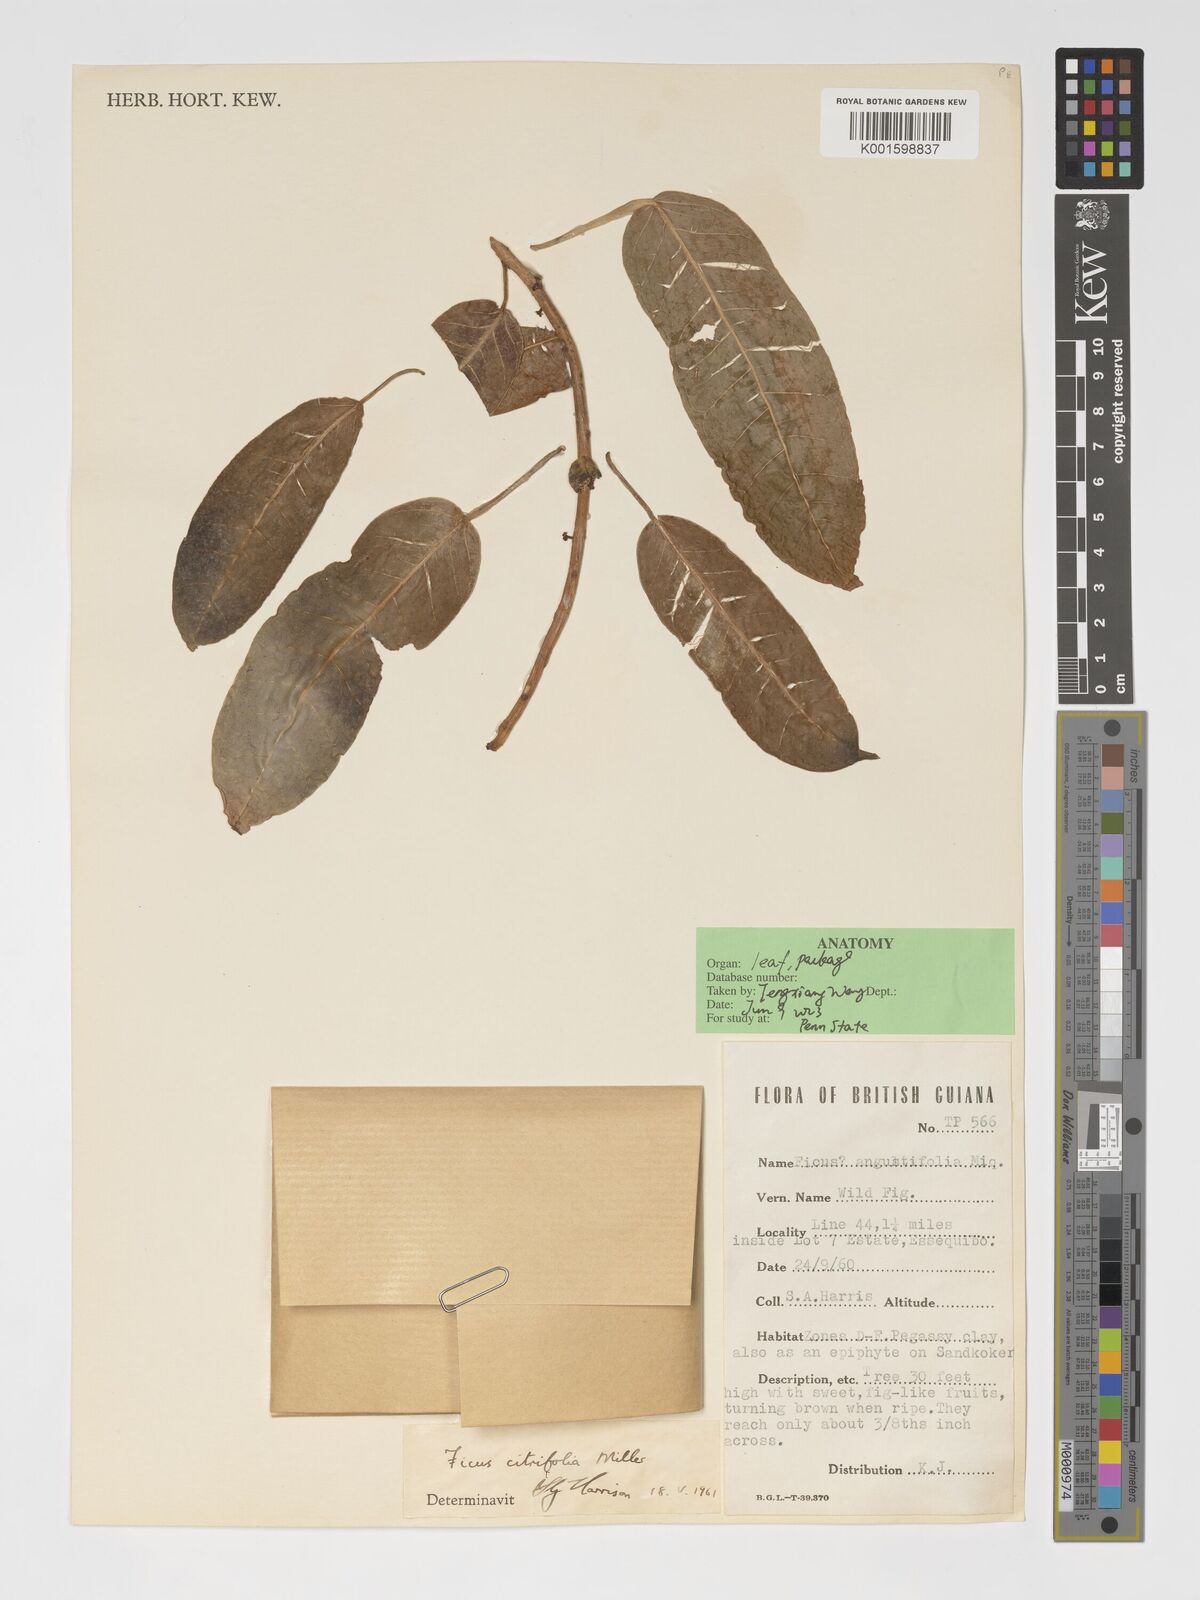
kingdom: Plantae
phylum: Tracheophyta
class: Magnoliopsida
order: Rosales
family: Moraceae
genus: Ficus
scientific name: Ficus amazonica
